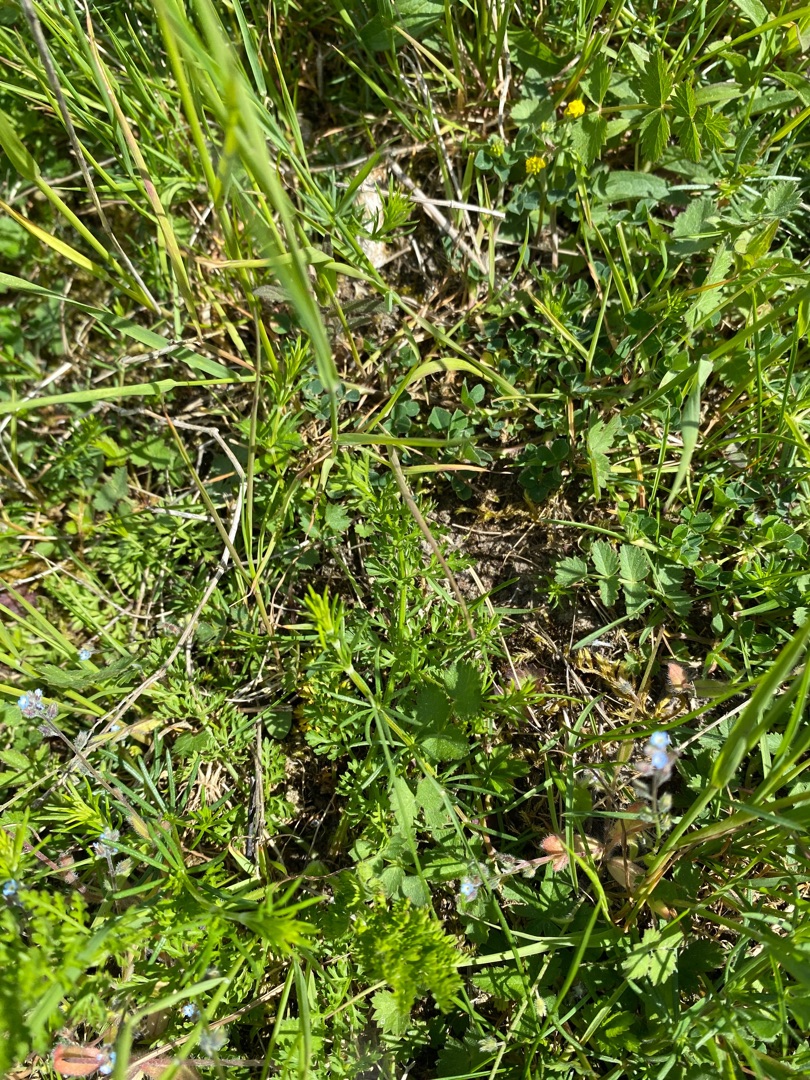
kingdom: Plantae
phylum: Tracheophyta
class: Magnoliopsida
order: Gentianales
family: Rubiaceae
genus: Galium
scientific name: Galium verum
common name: Gul snerre
